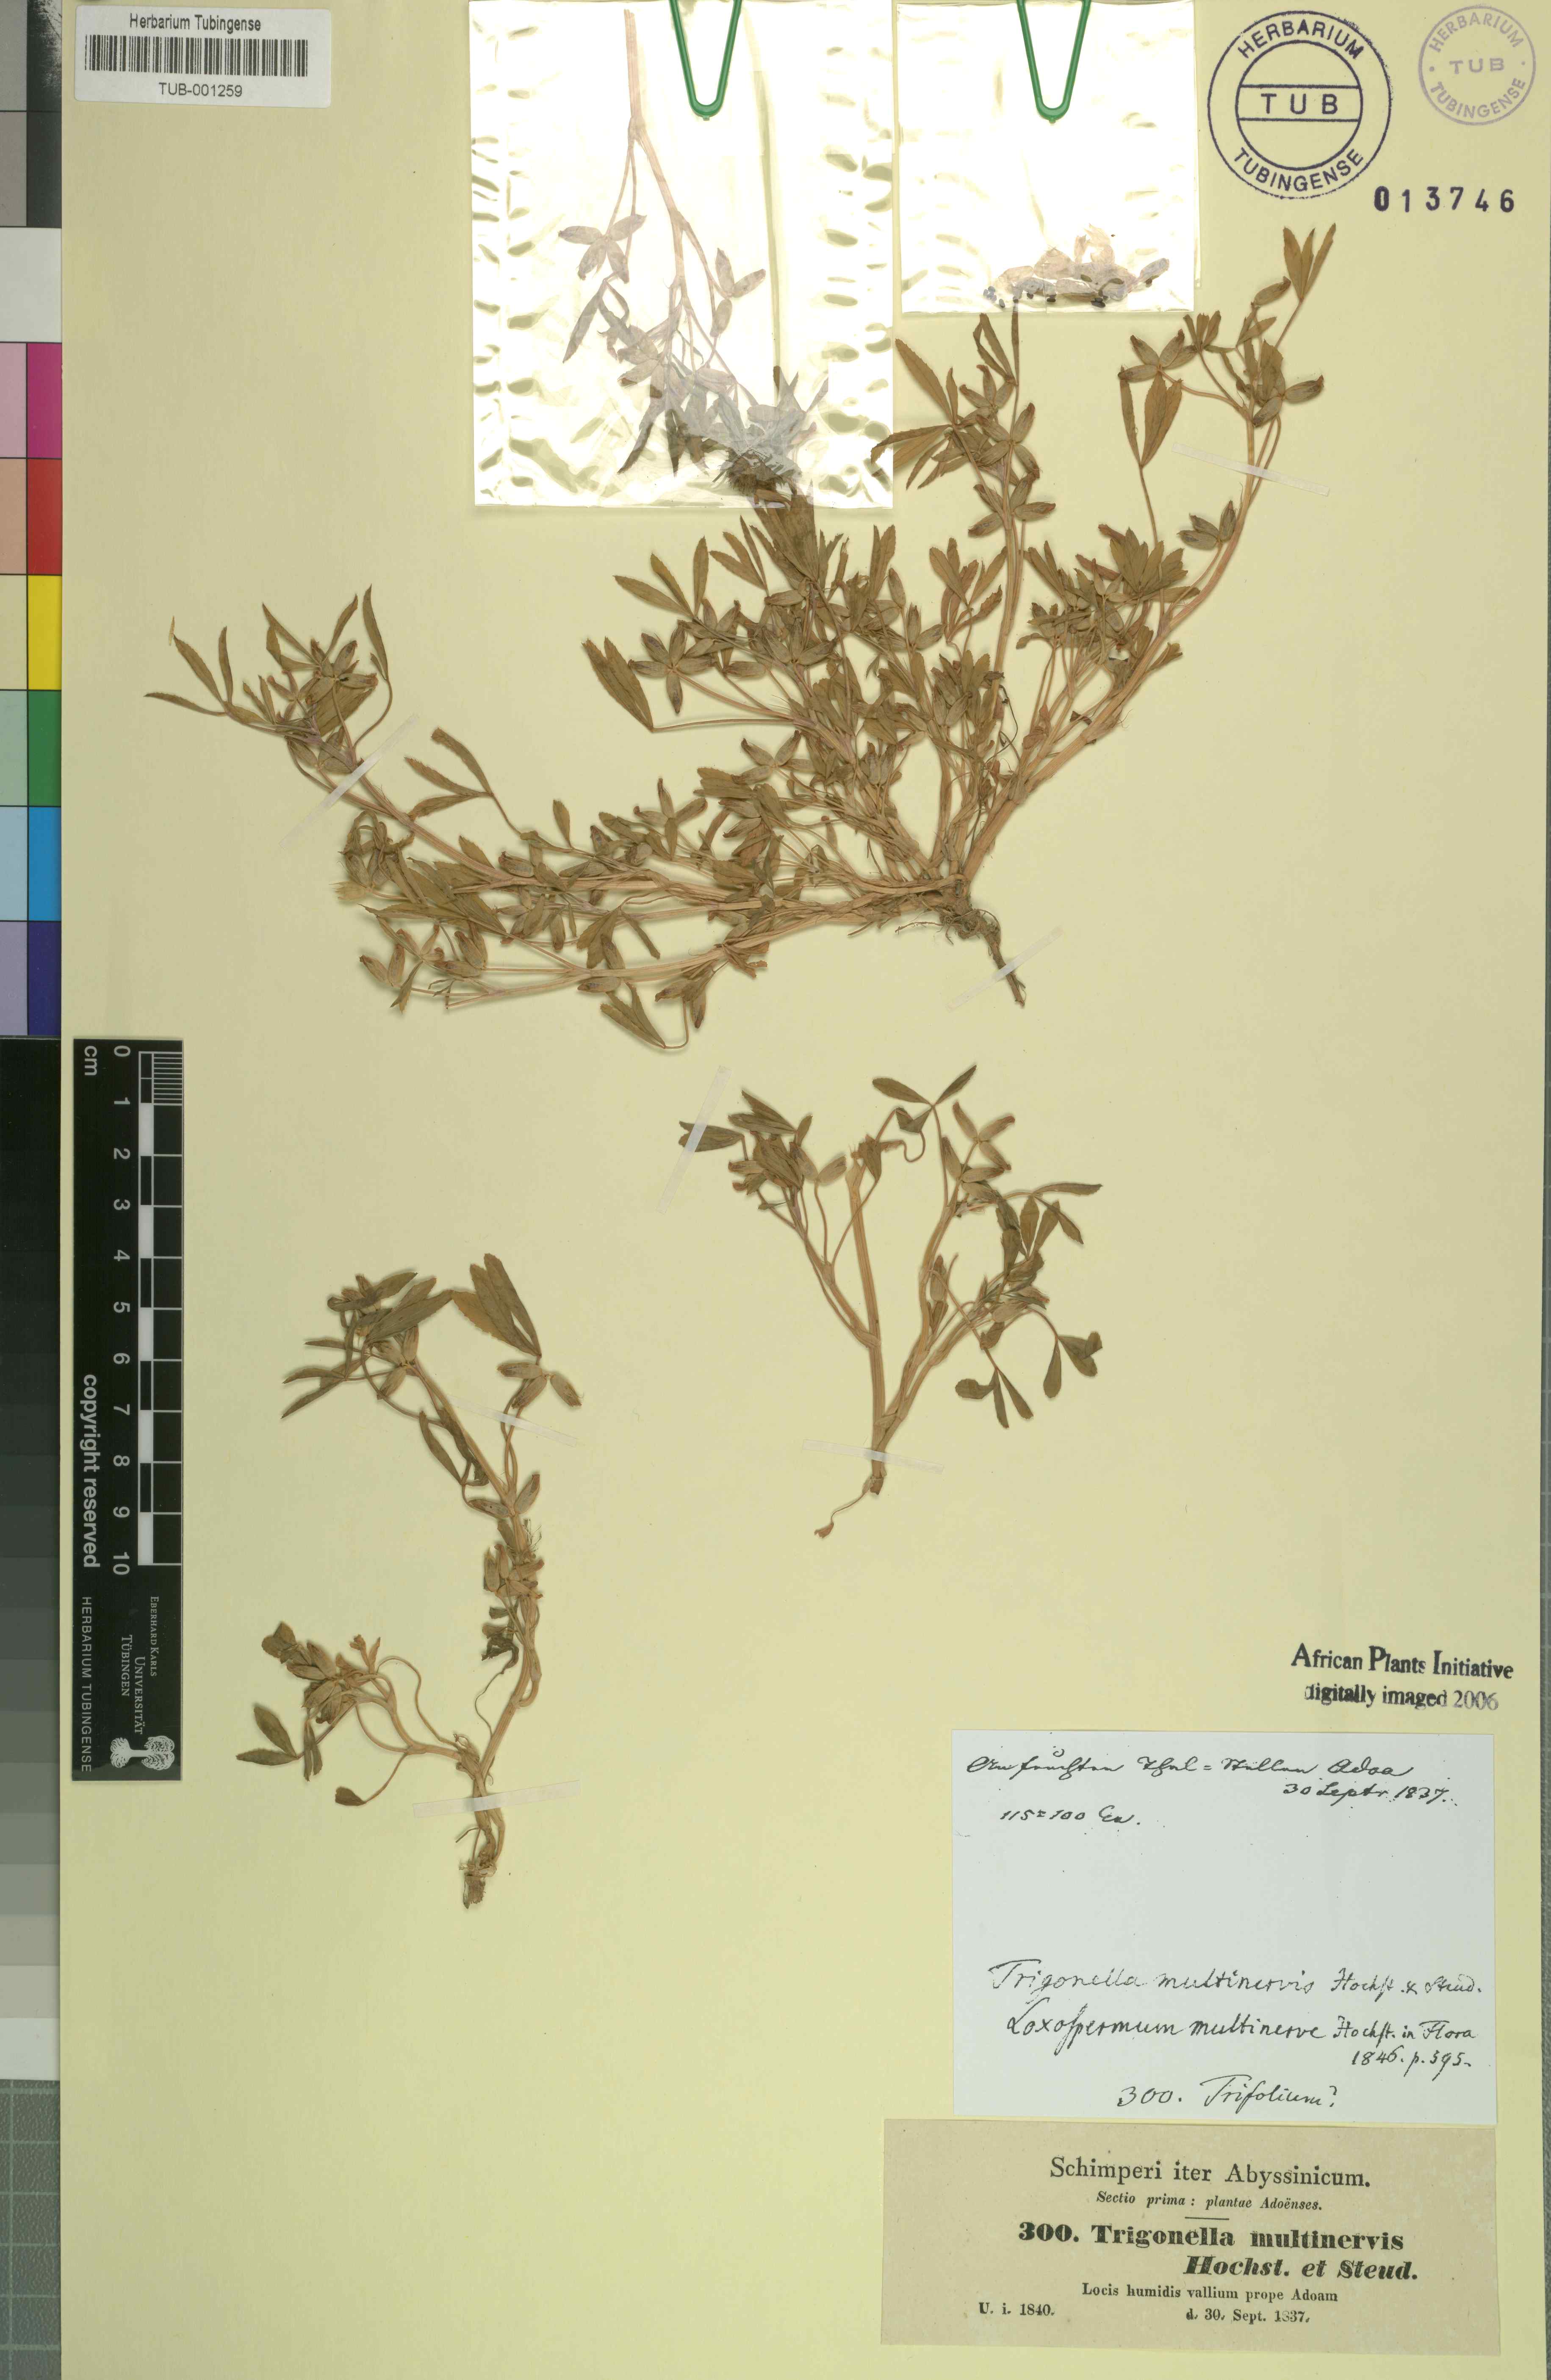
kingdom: Plantae
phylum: Tracheophyta
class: Magnoliopsida
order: Fabales
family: Fabaceae
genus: Trifolium
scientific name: Trifolium multinerve
